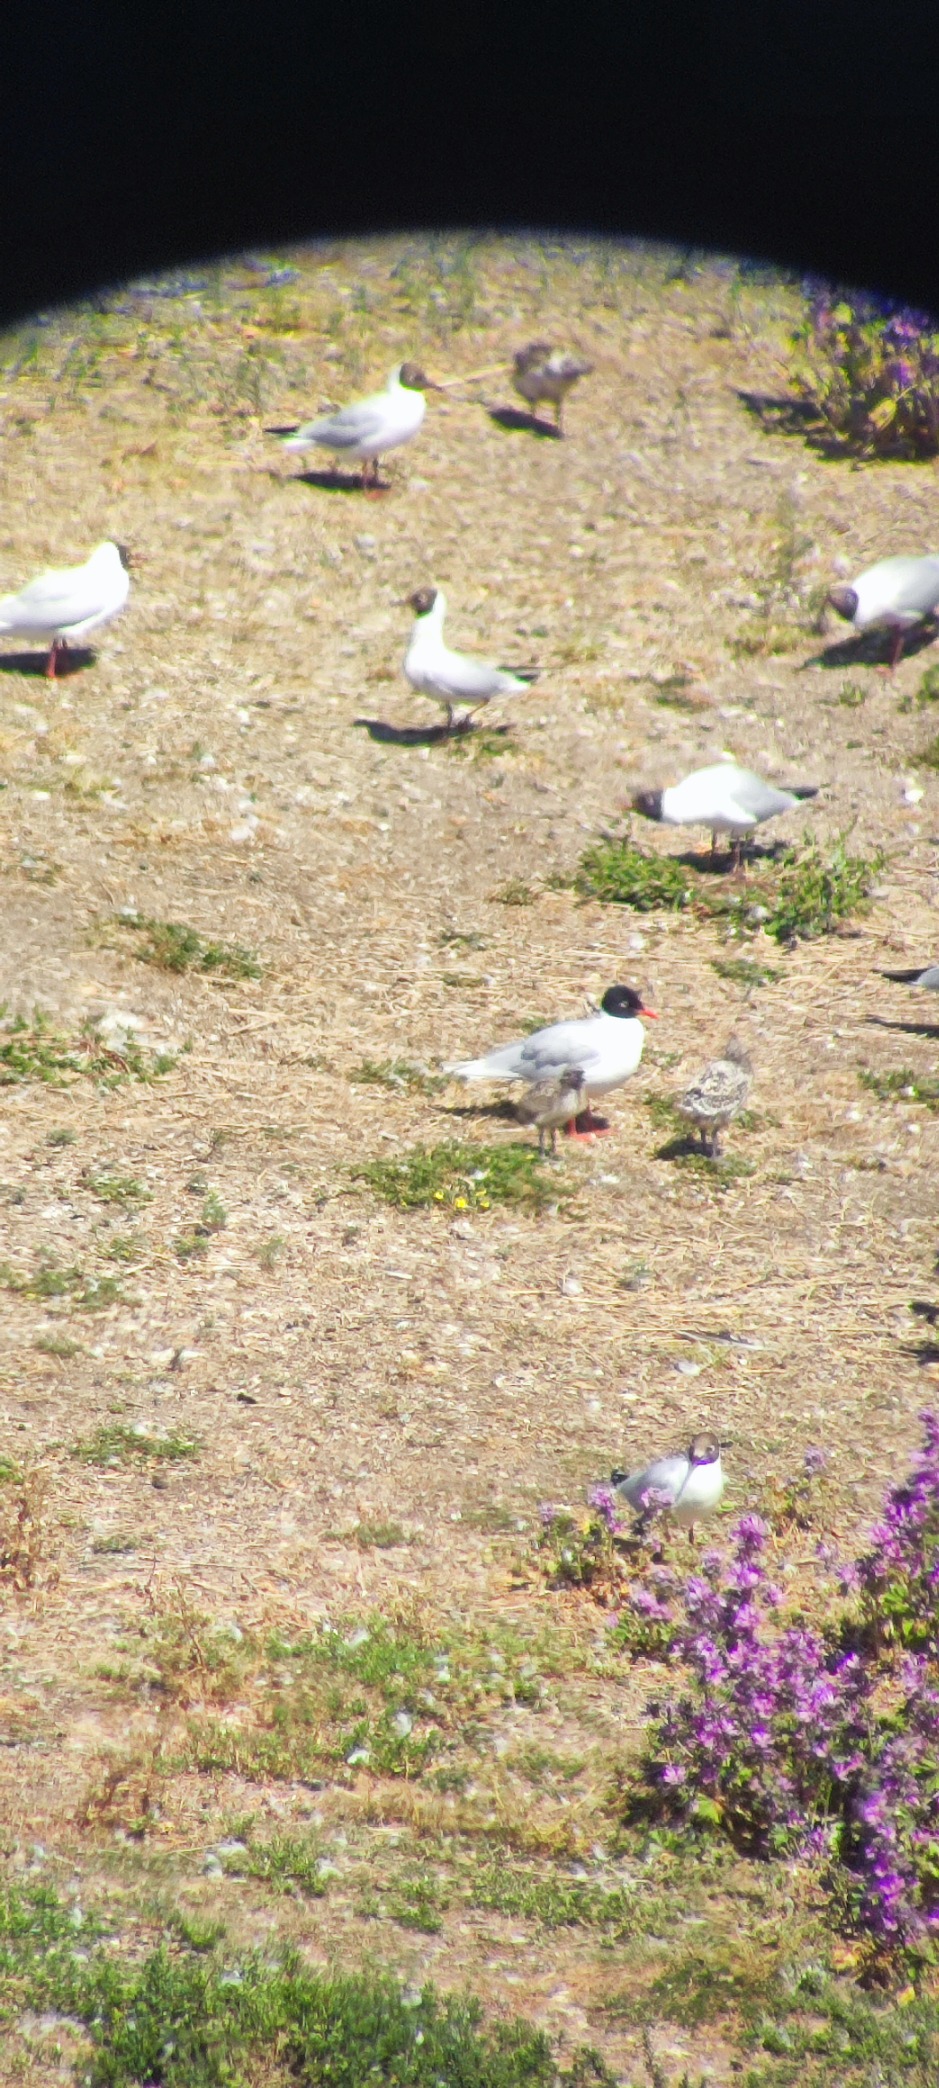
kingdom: Animalia
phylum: Chordata
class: Aves
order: Charadriiformes
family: Laridae
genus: Ichthyaetus
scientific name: Ichthyaetus melanocephalus
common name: Sorthovedet måge
